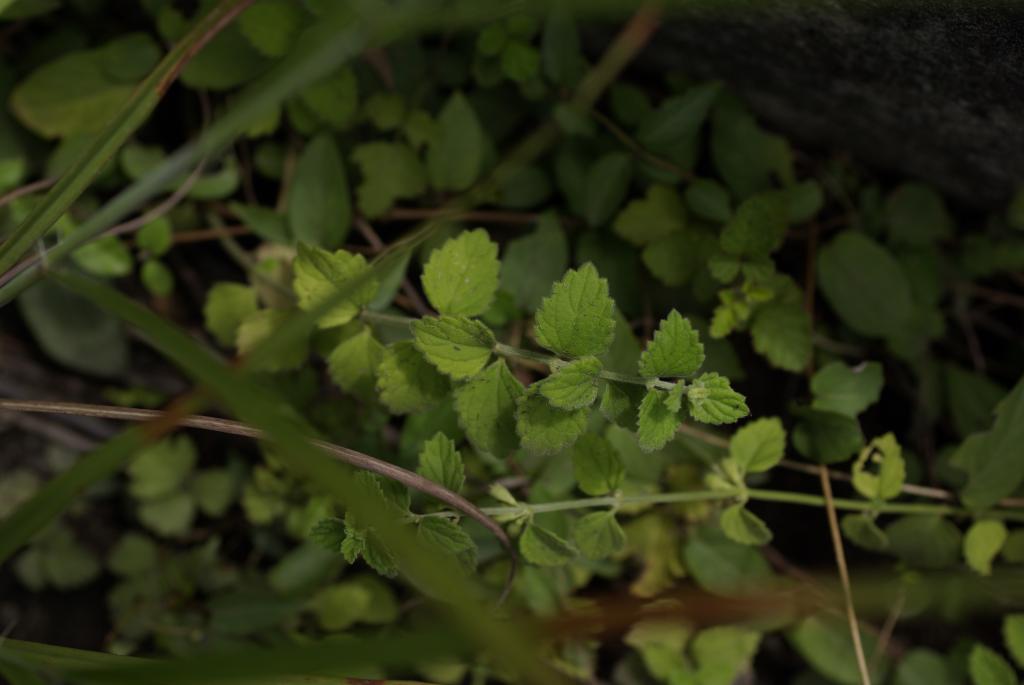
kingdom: Plantae
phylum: Tracheophyta
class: Magnoliopsida
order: Lamiales
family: Lamiaceae
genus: Leucas
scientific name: Leucas chinensis
